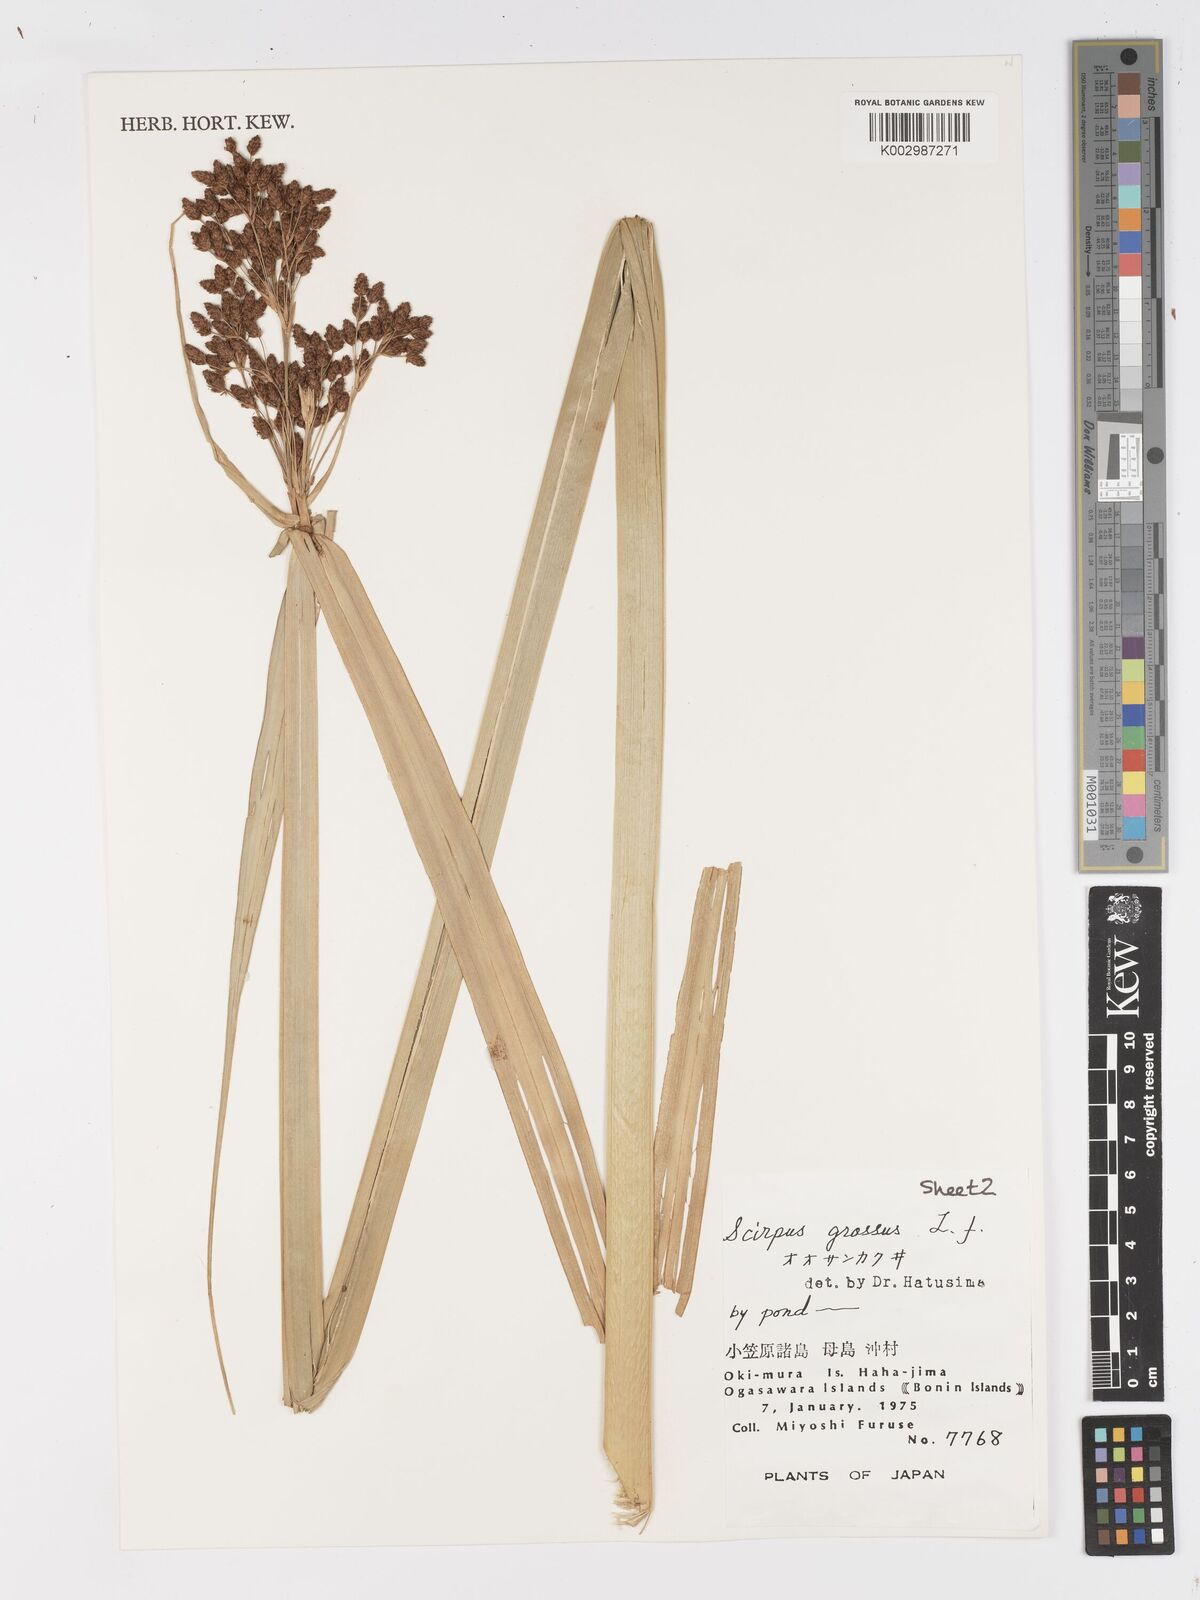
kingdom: Plantae
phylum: Tracheophyta
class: Liliopsida
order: Poales
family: Cyperaceae
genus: Actinoscirpus
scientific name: Actinoscirpus grossus
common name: Giant bur rush
